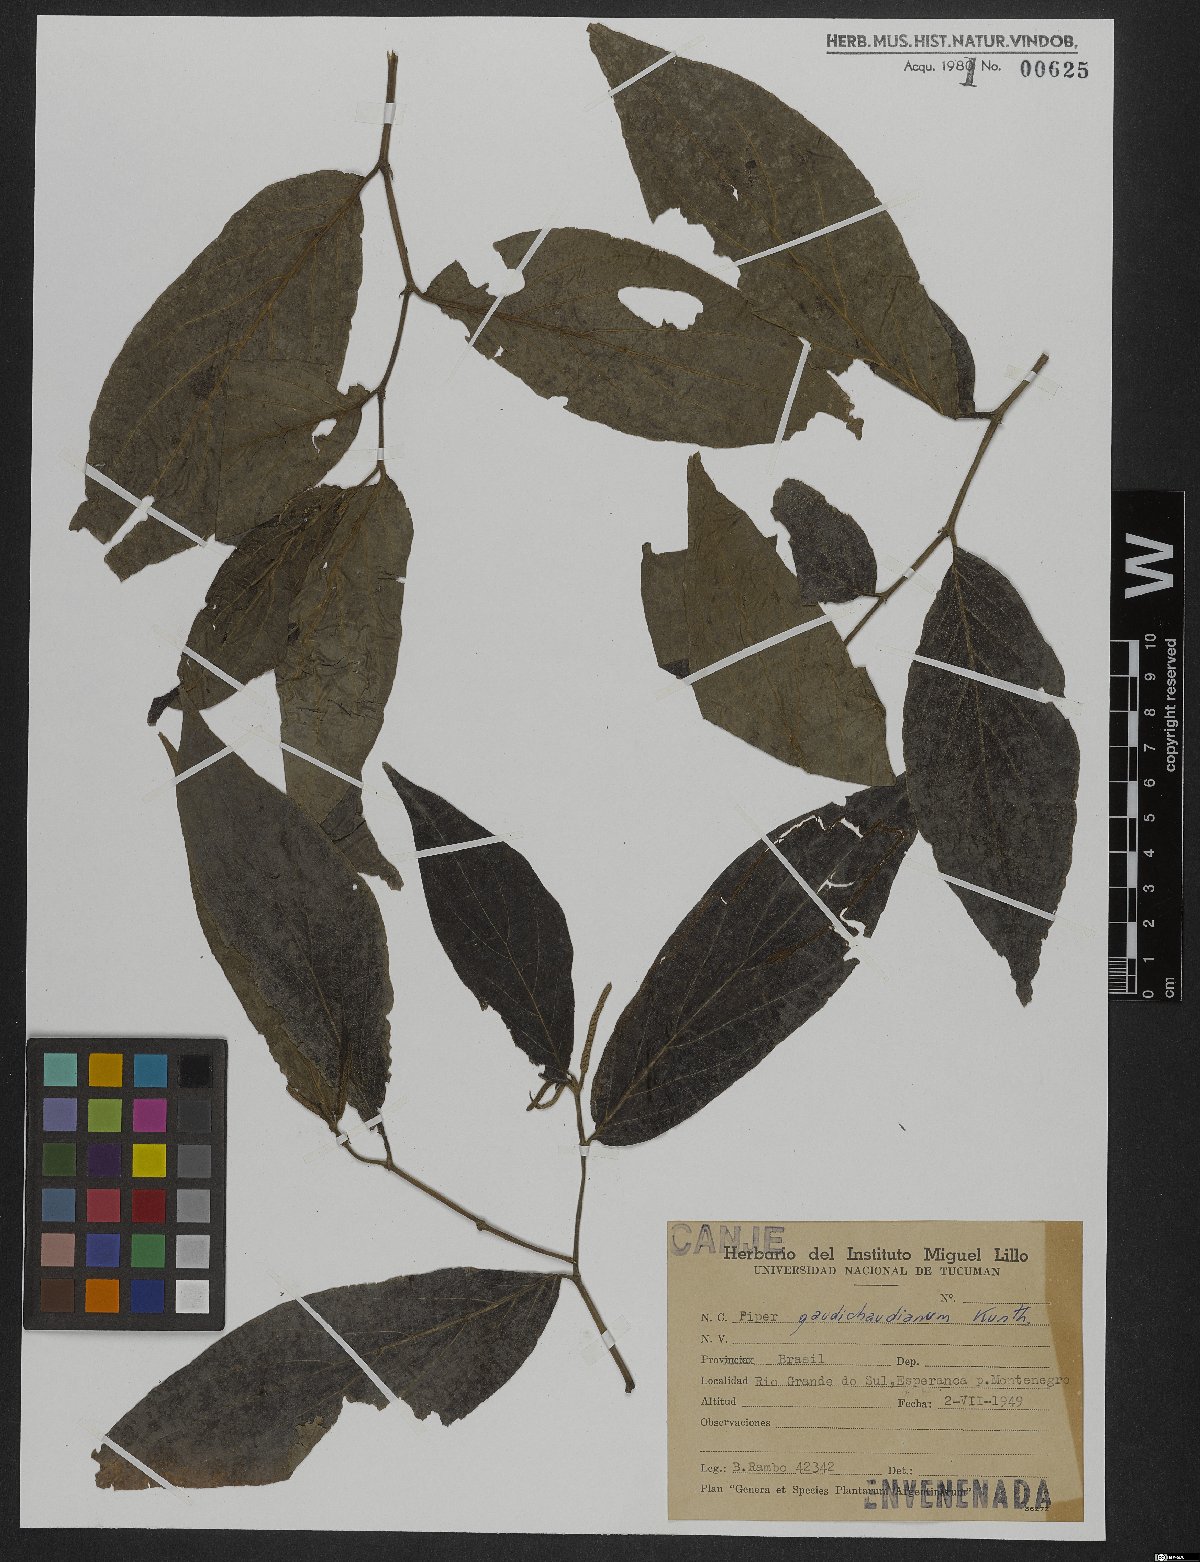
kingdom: Plantae
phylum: Tracheophyta
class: Magnoliopsida
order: Piperales
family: Piperaceae
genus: Piper
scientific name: Piper gaudichaudianum
